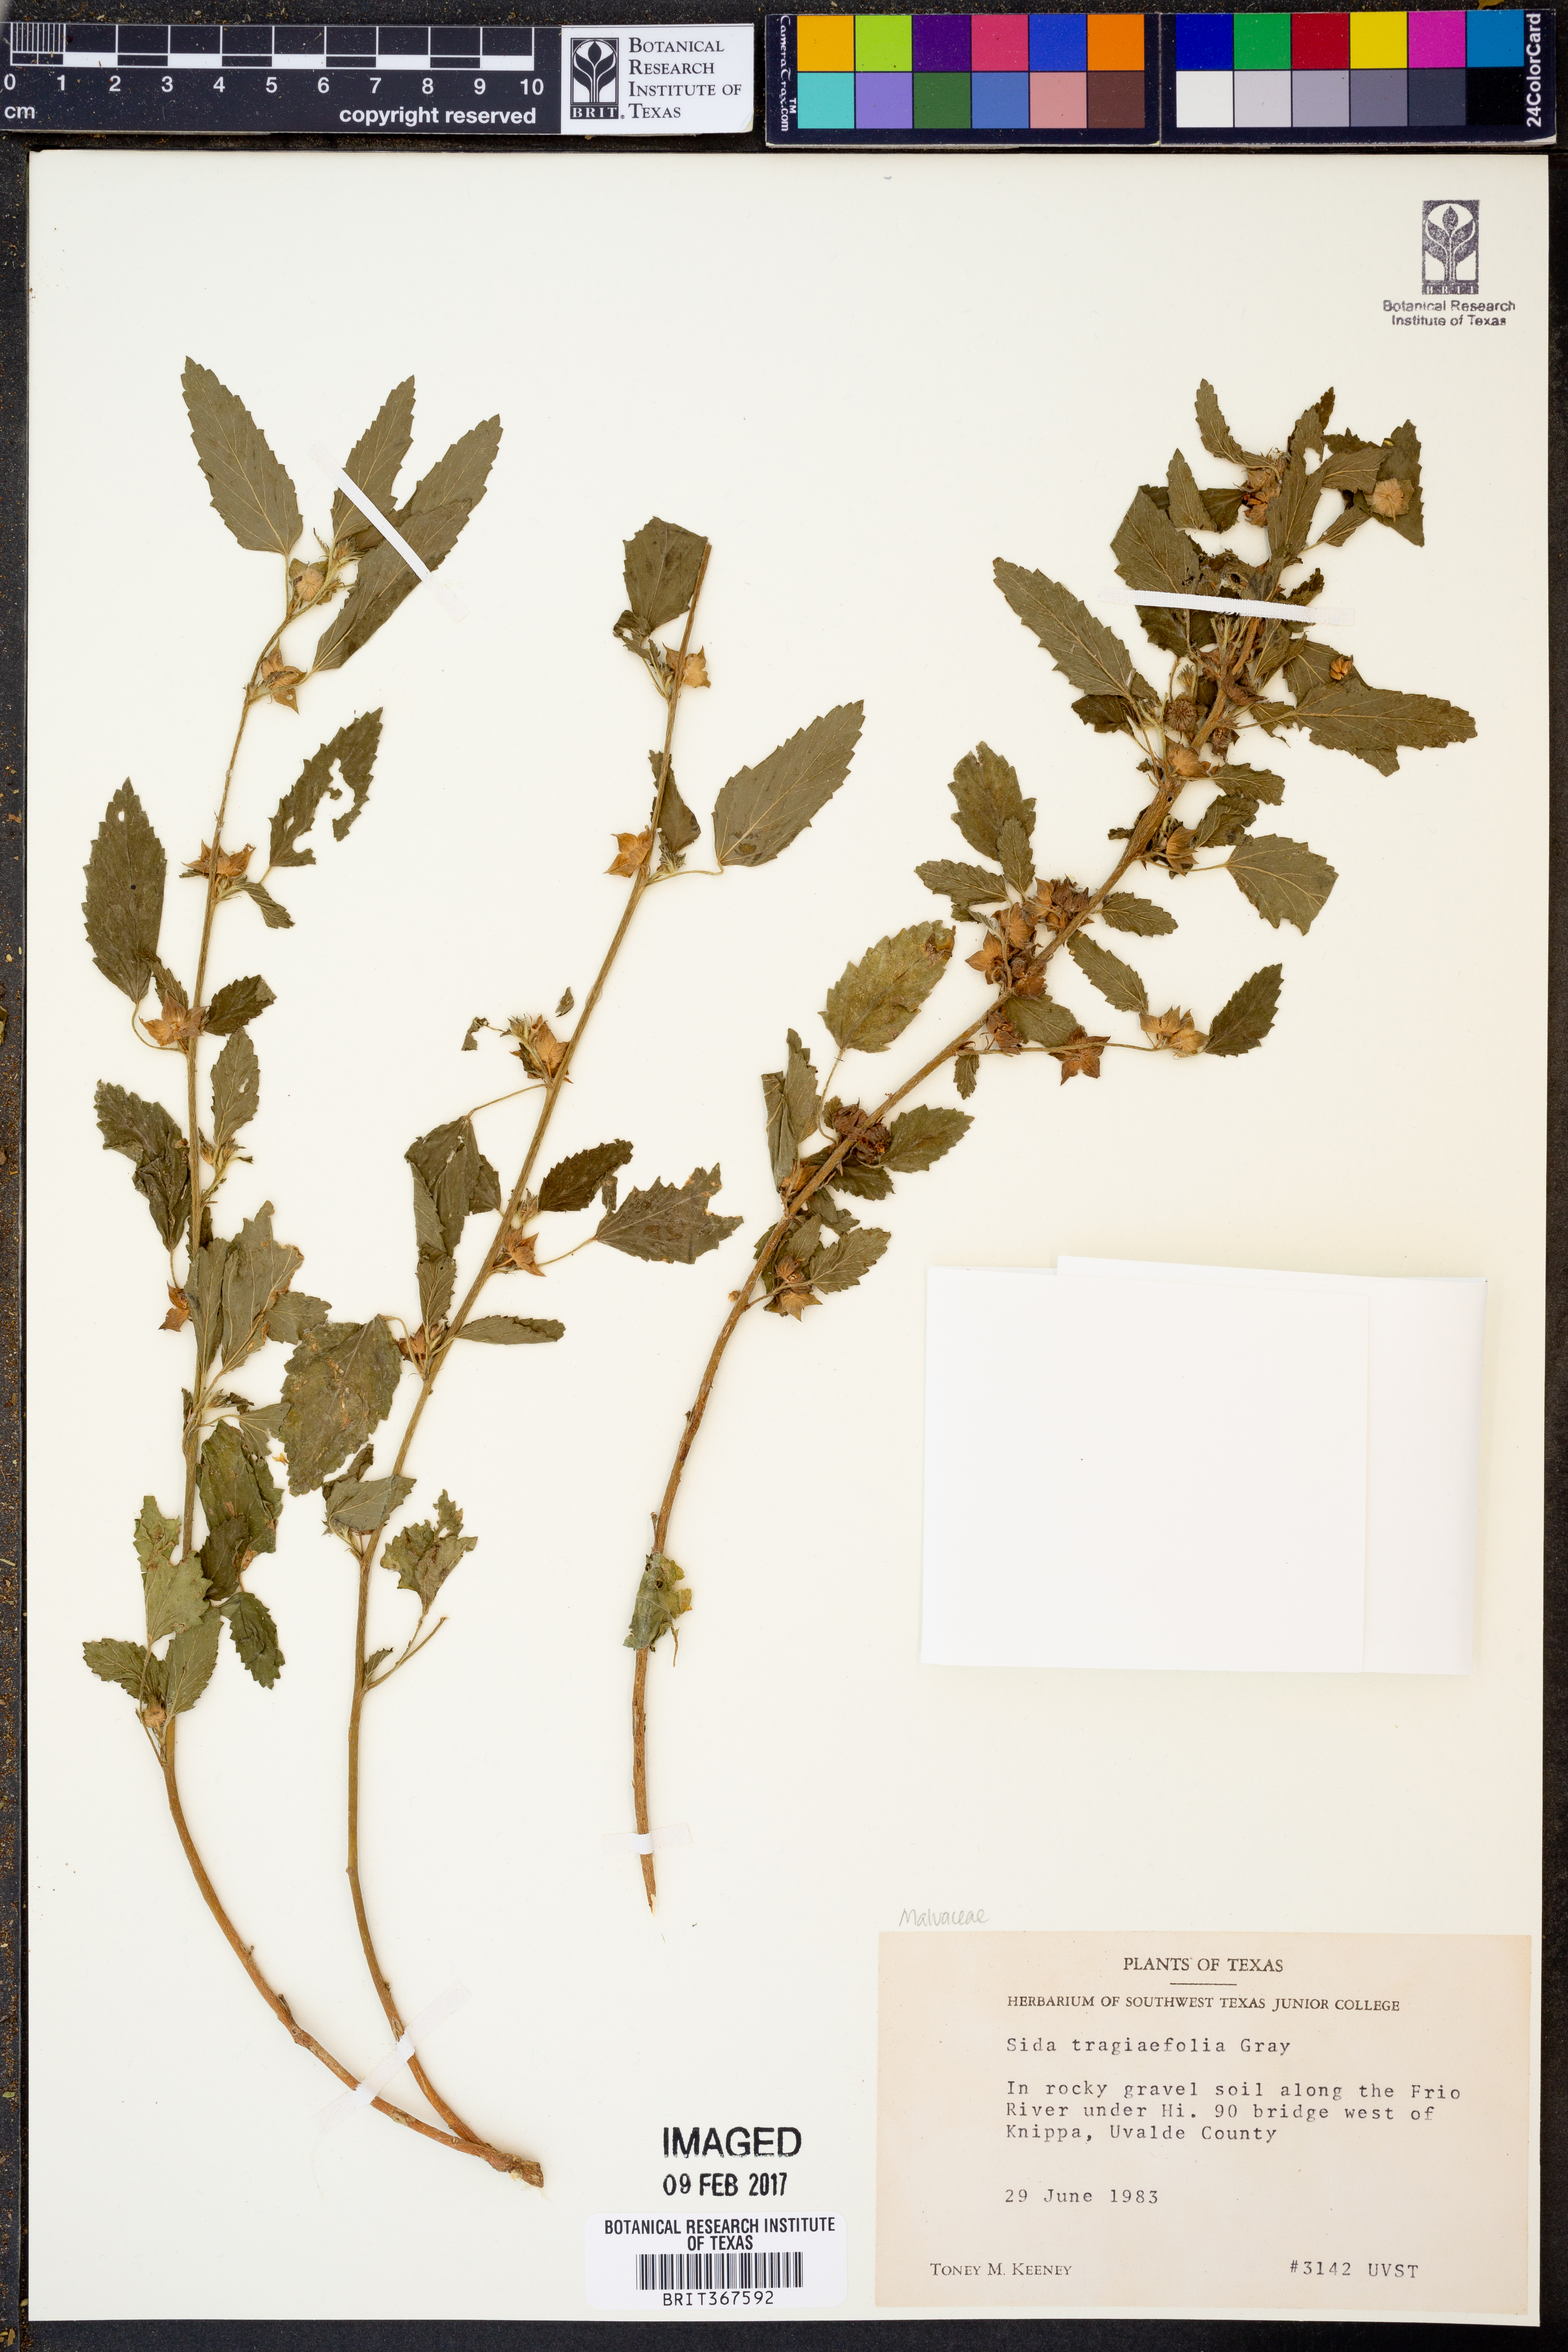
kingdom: Plantae
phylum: Tracheophyta
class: Magnoliopsida
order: Malvales
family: Malvaceae
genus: Sida
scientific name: Sida tragiifolia
